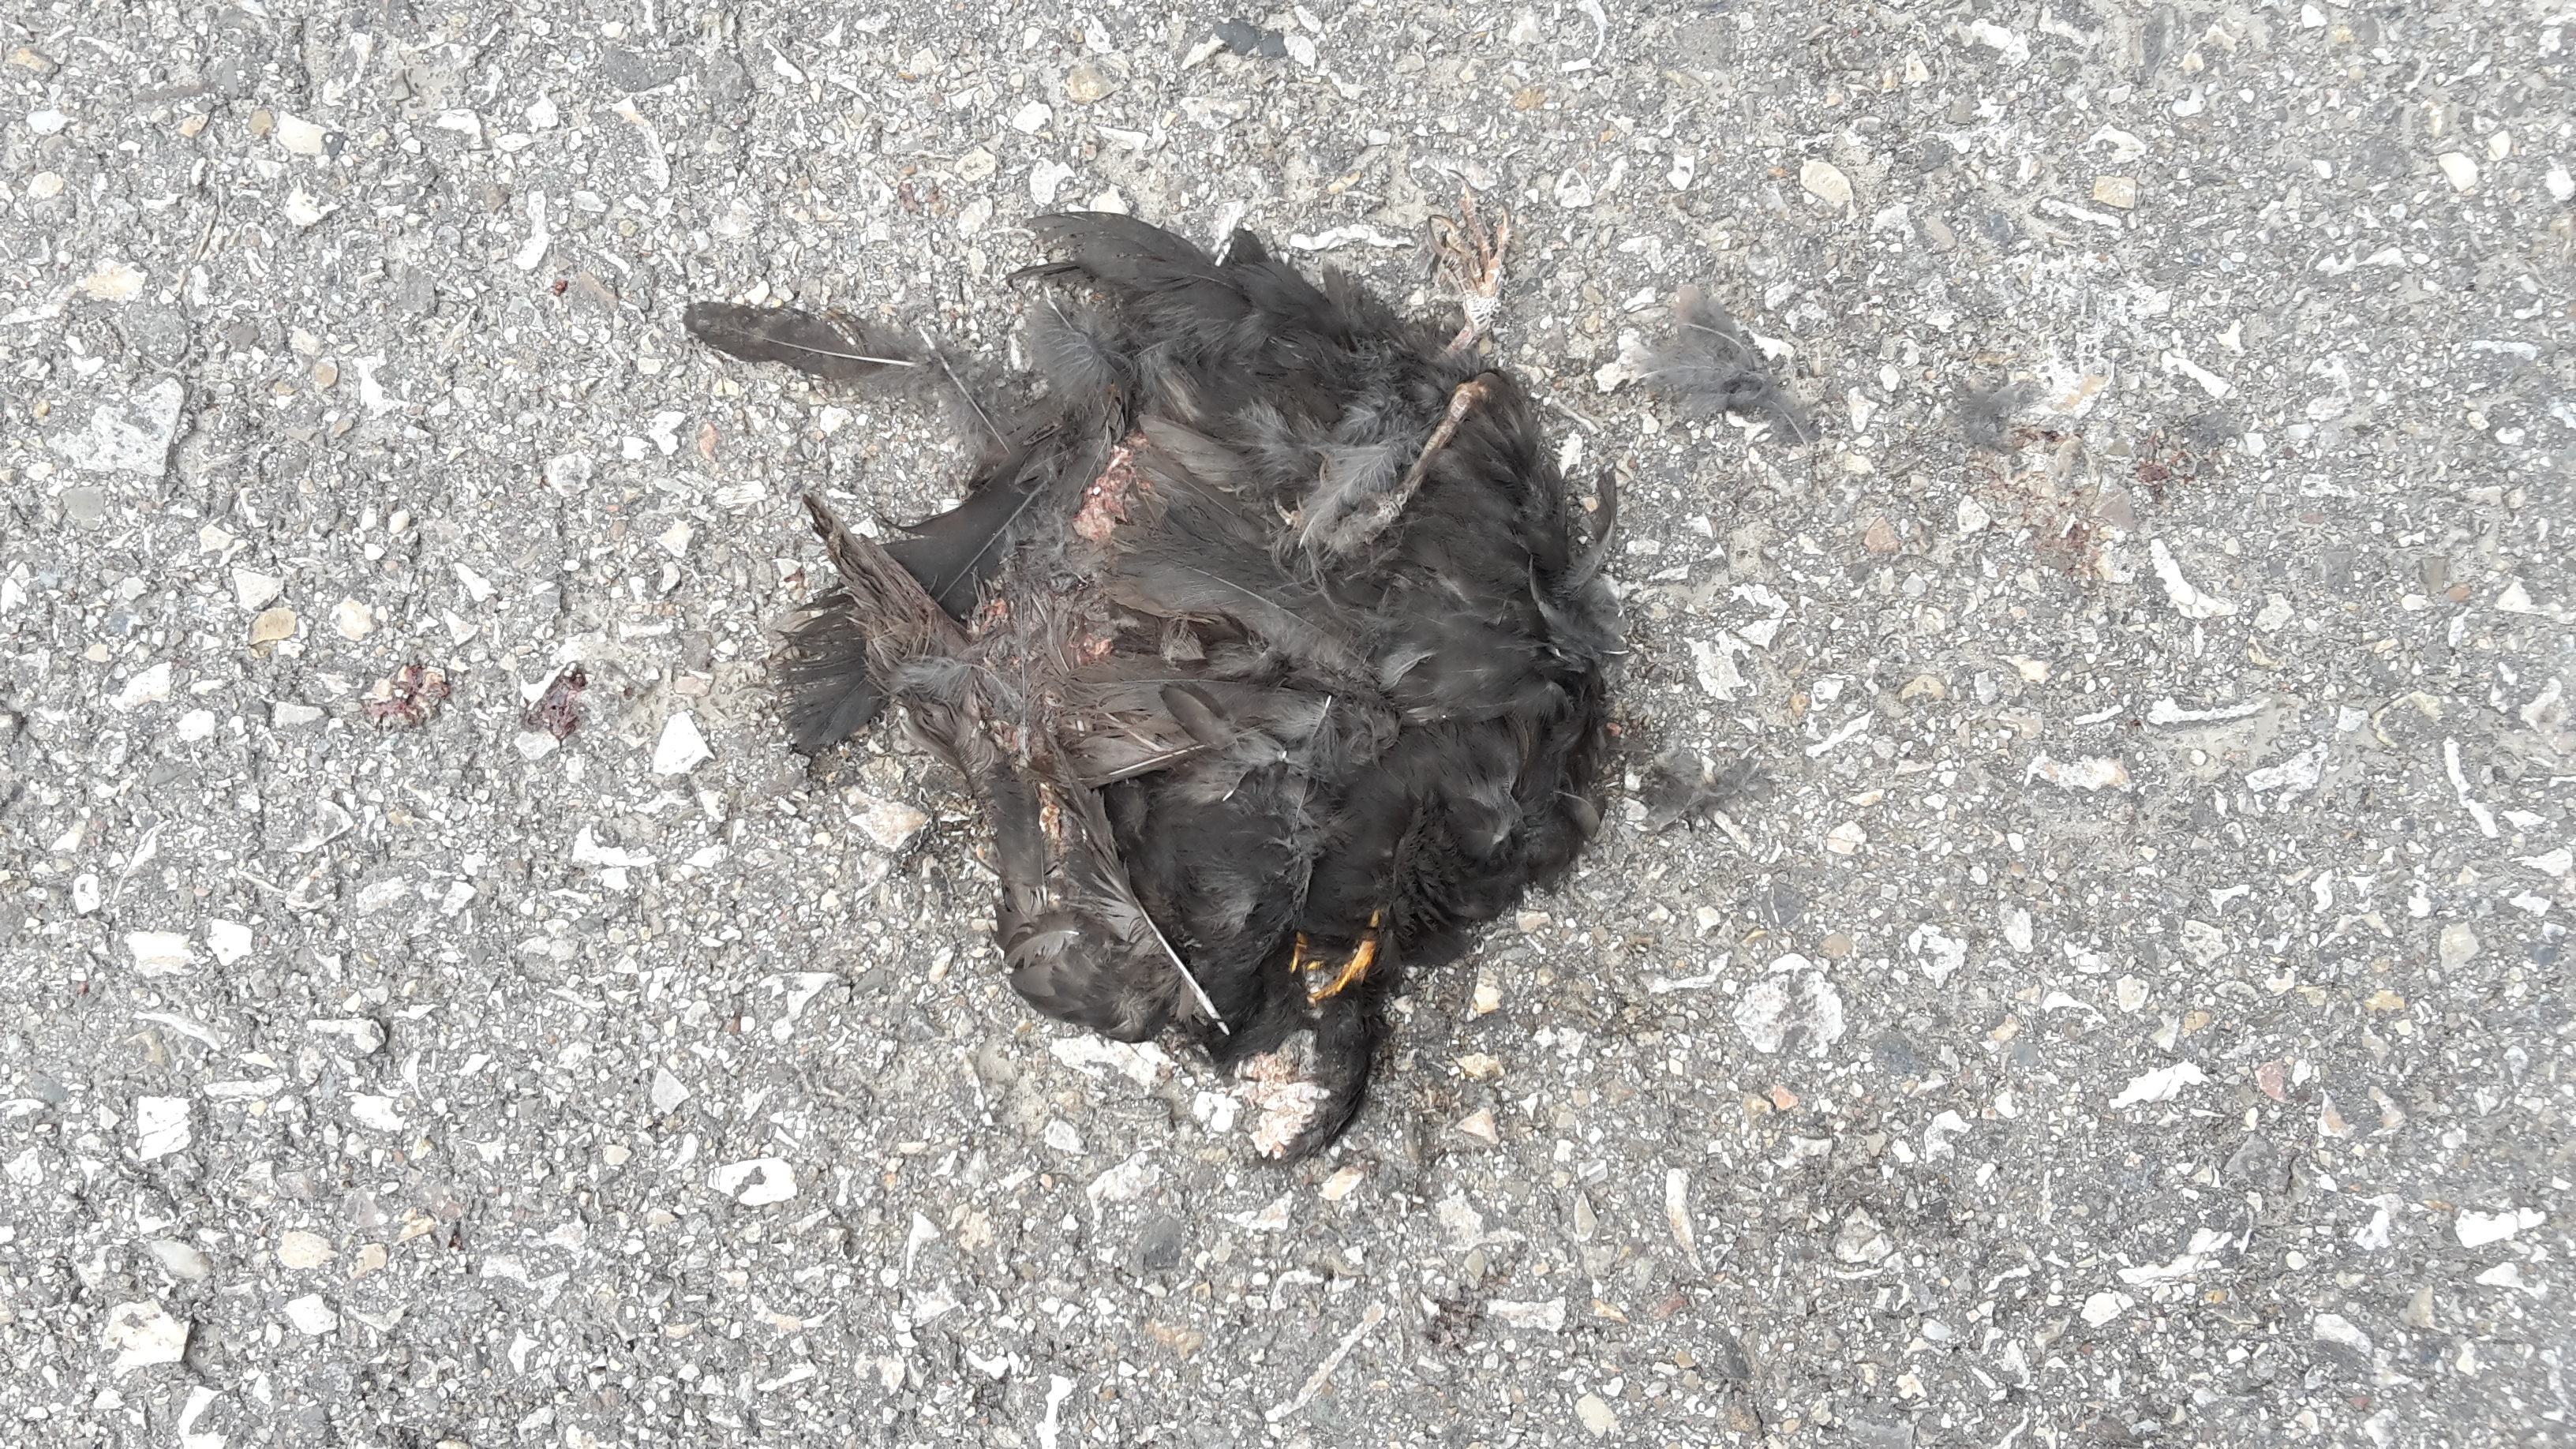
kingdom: Animalia
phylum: Chordata
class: Aves
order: Passeriformes
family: Turdidae
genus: Turdus
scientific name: Turdus merula
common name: Common blackbird
